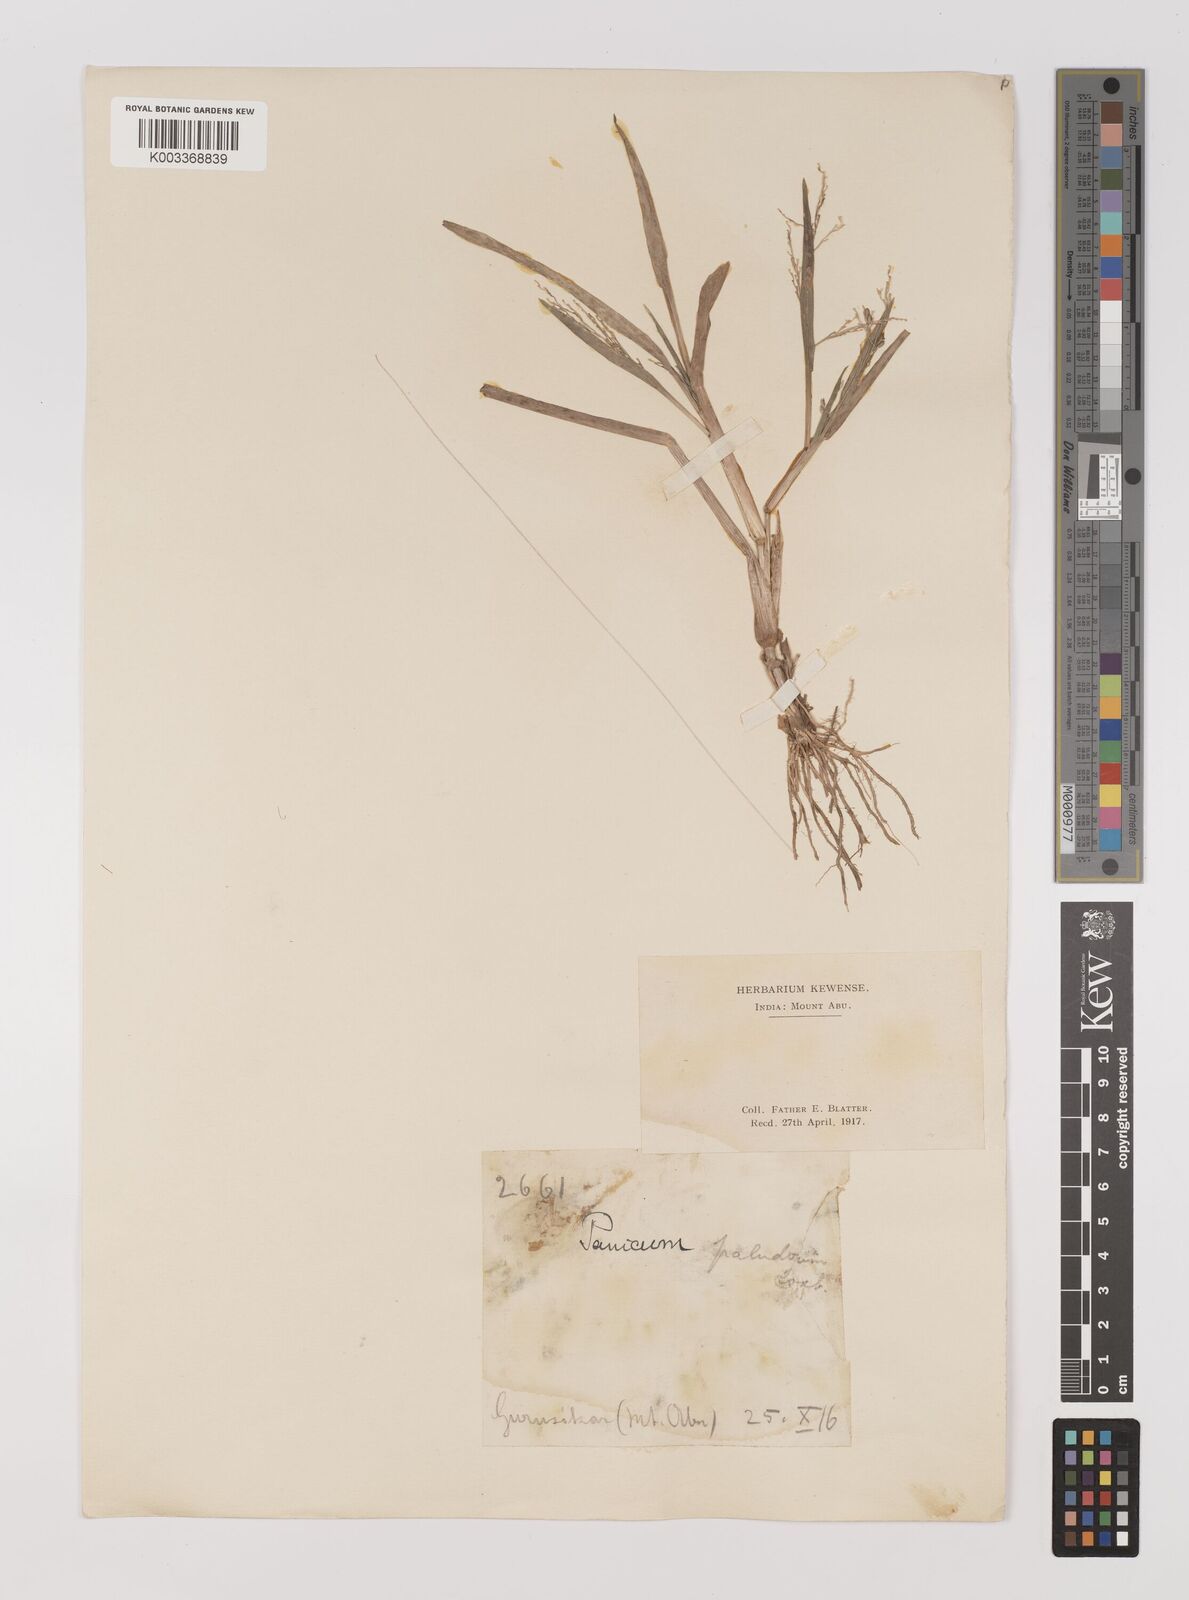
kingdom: Plantae
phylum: Tracheophyta
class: Liliopsida
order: Poales
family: Poaceae
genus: Louisiella
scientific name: Louisiella paludosa
